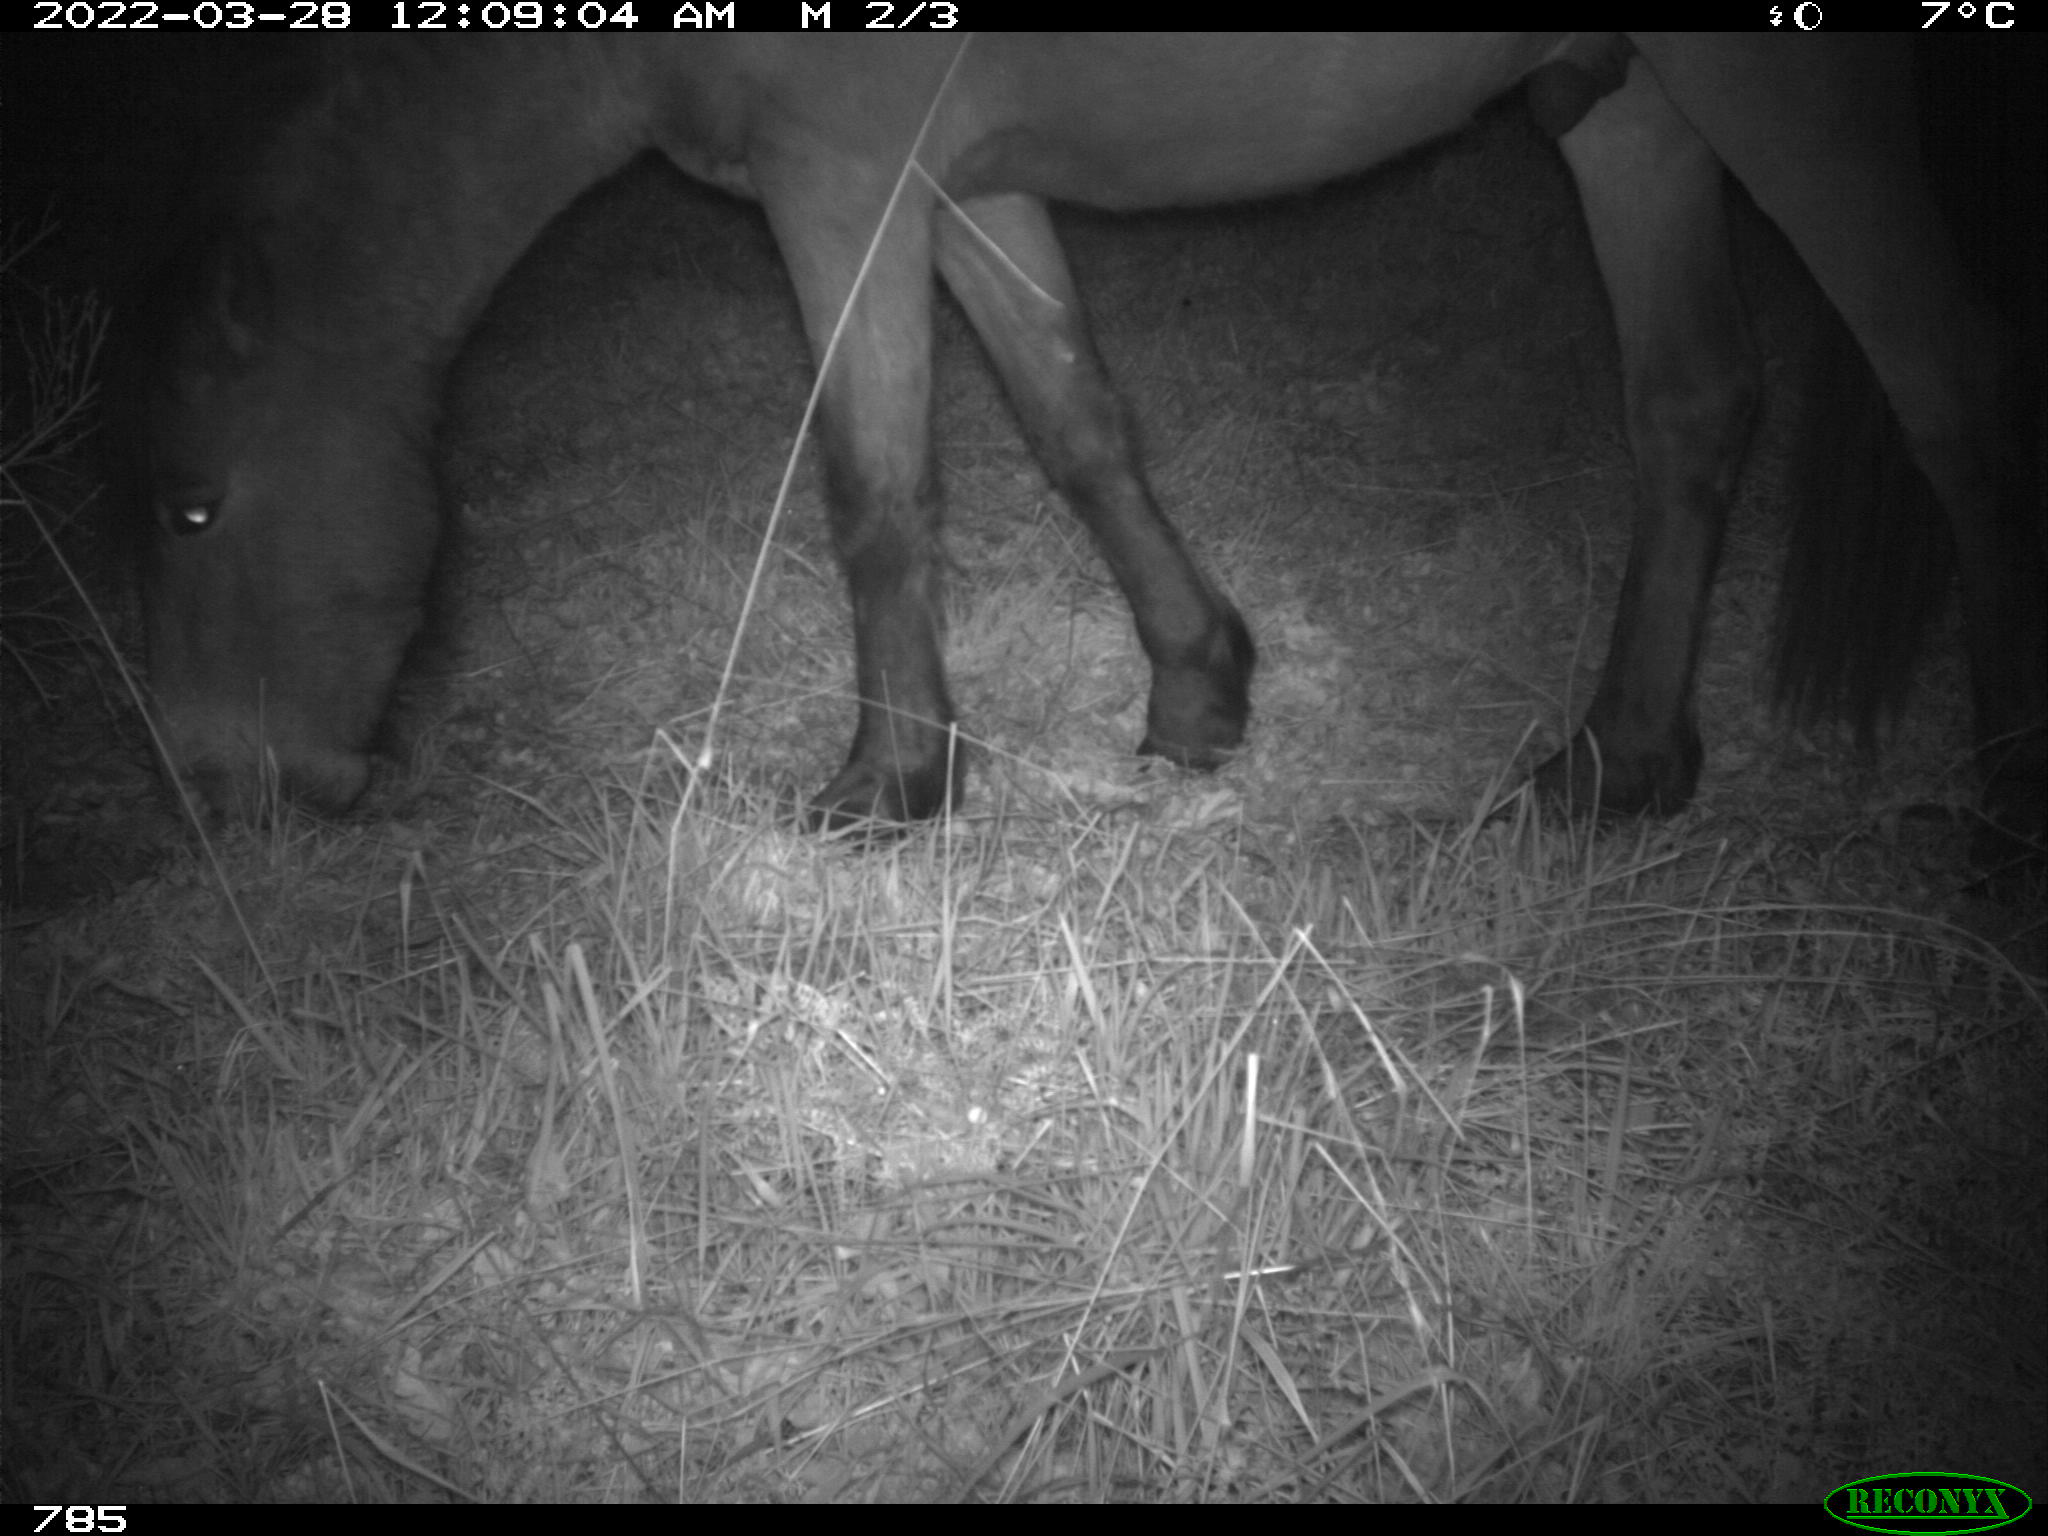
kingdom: Animalia
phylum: Chordata
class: Mammalia
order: Perissodactyla
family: Equidae
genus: Equus
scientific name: Equus caballus
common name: Horse
